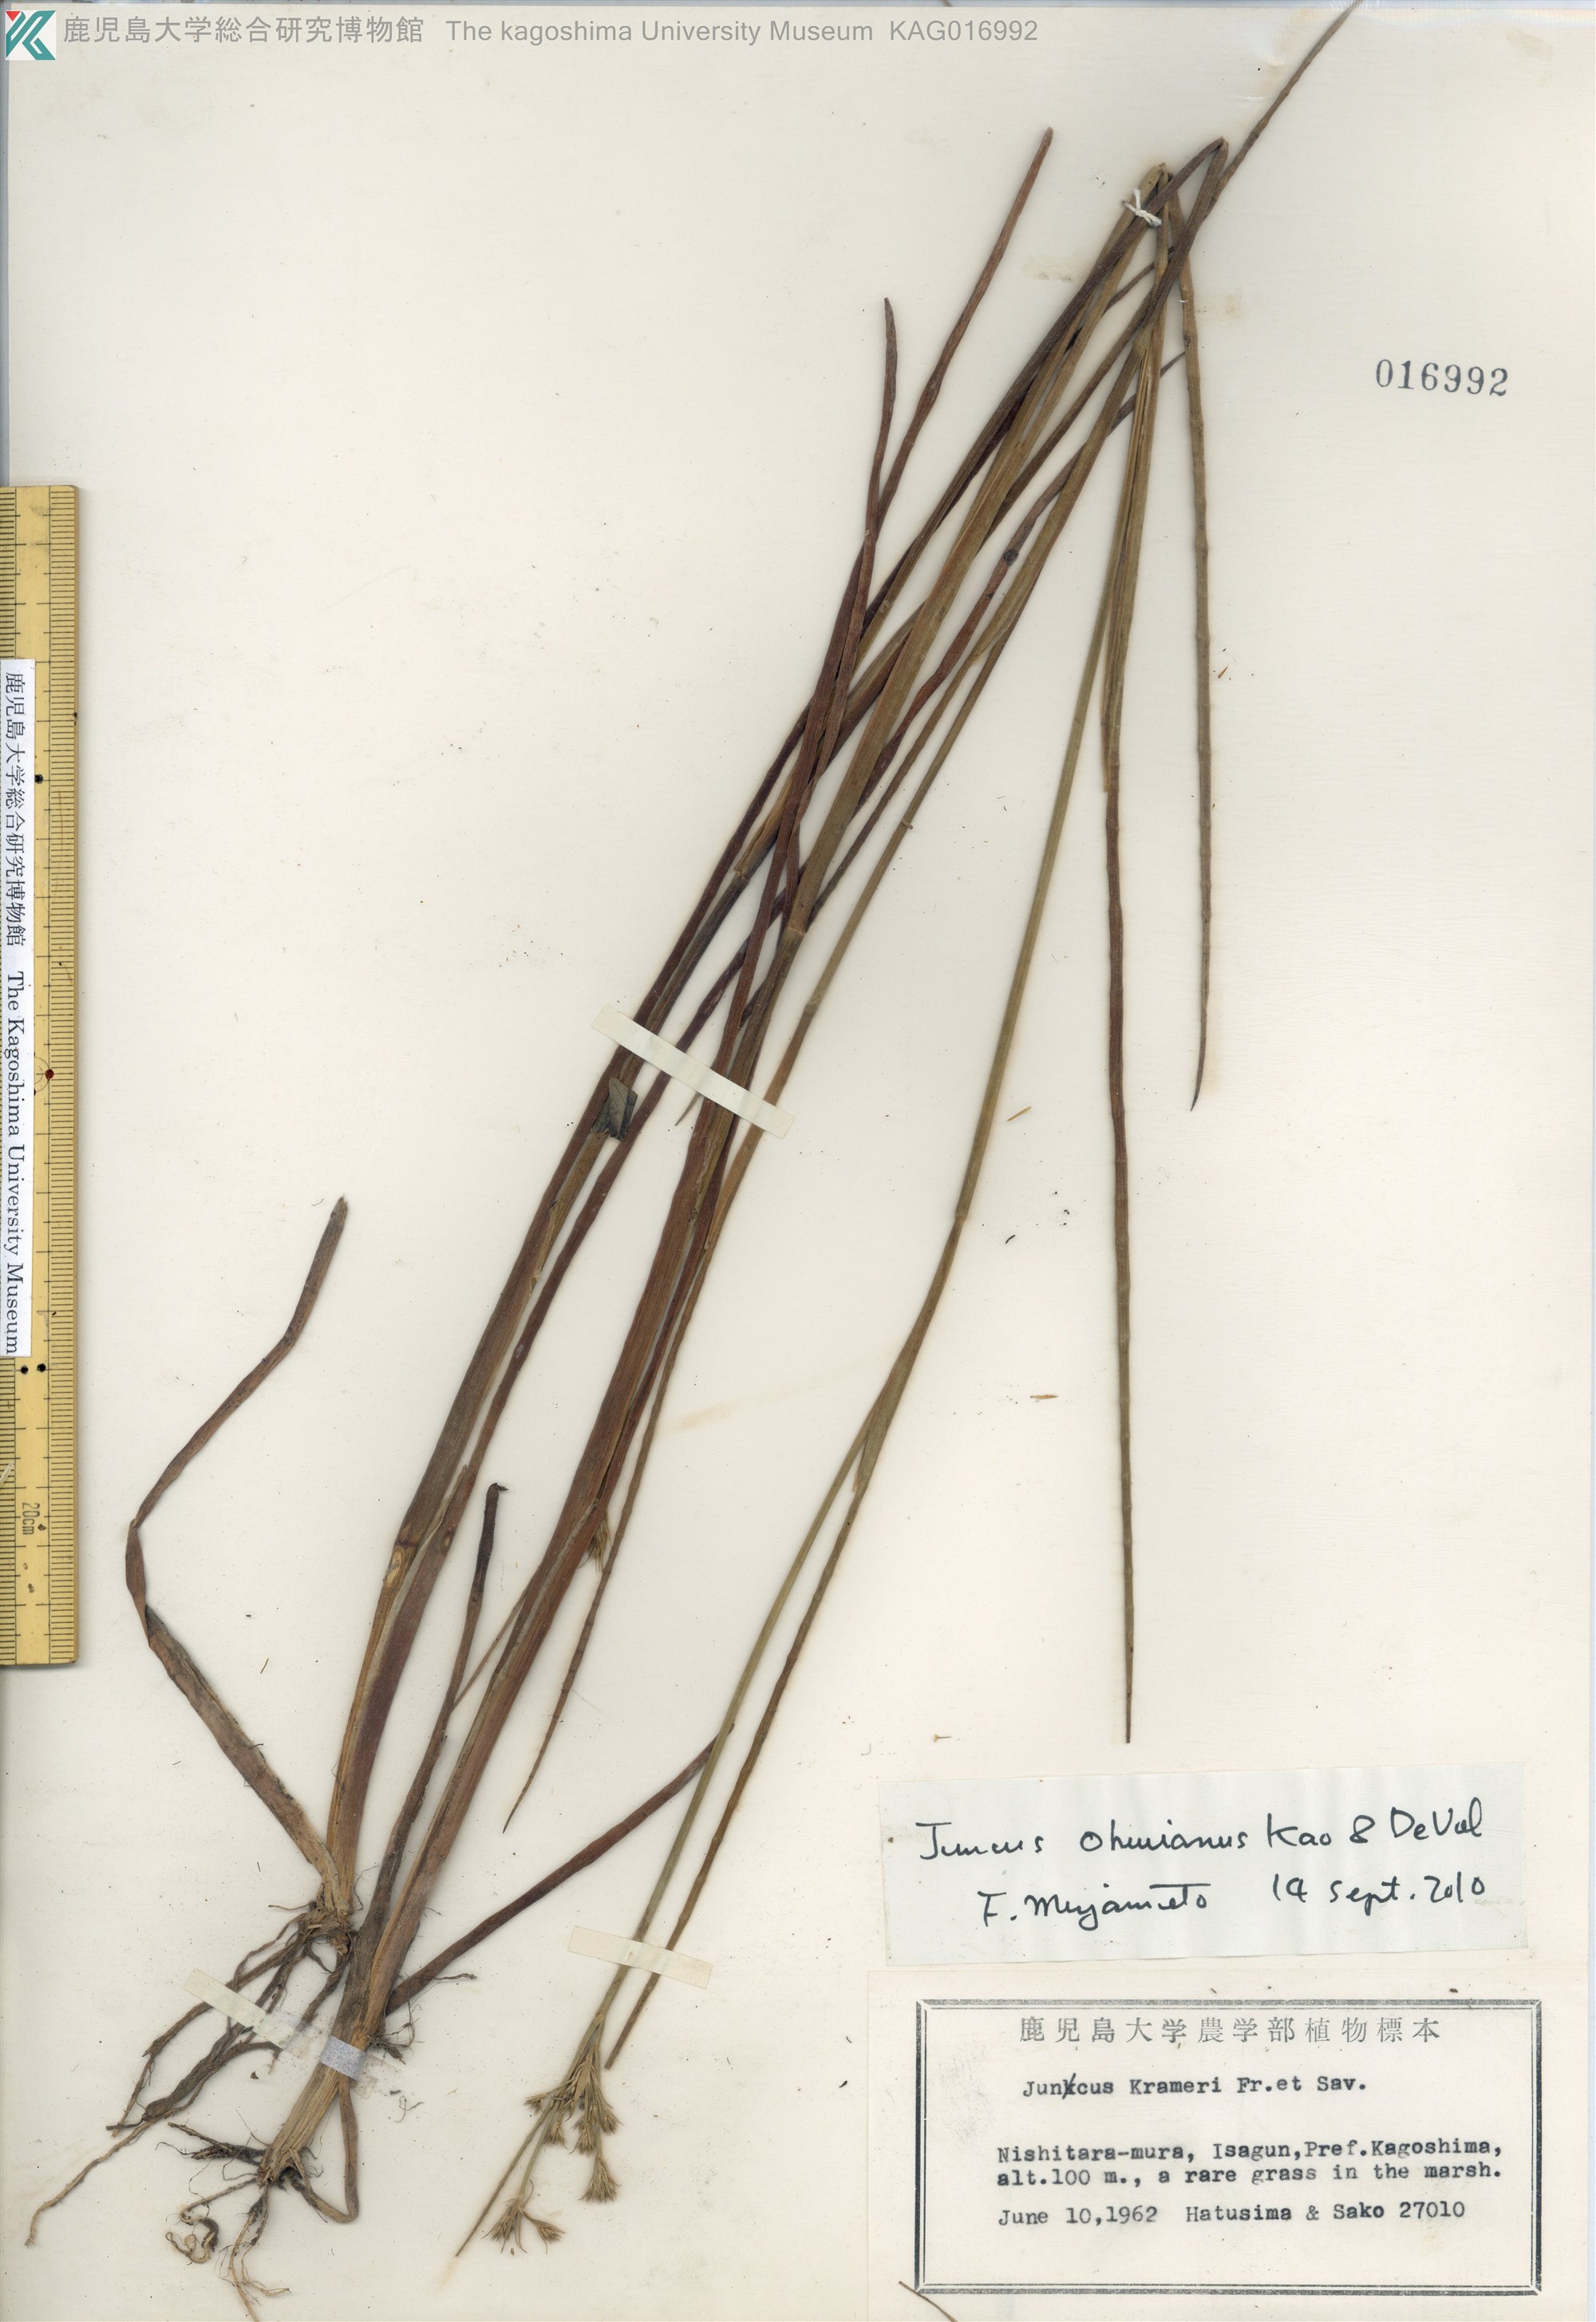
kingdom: Plantae
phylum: Tracheophyta
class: Liliopsida
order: Poales
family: Juncaceae
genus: Juncus
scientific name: Juncus wallichianus
